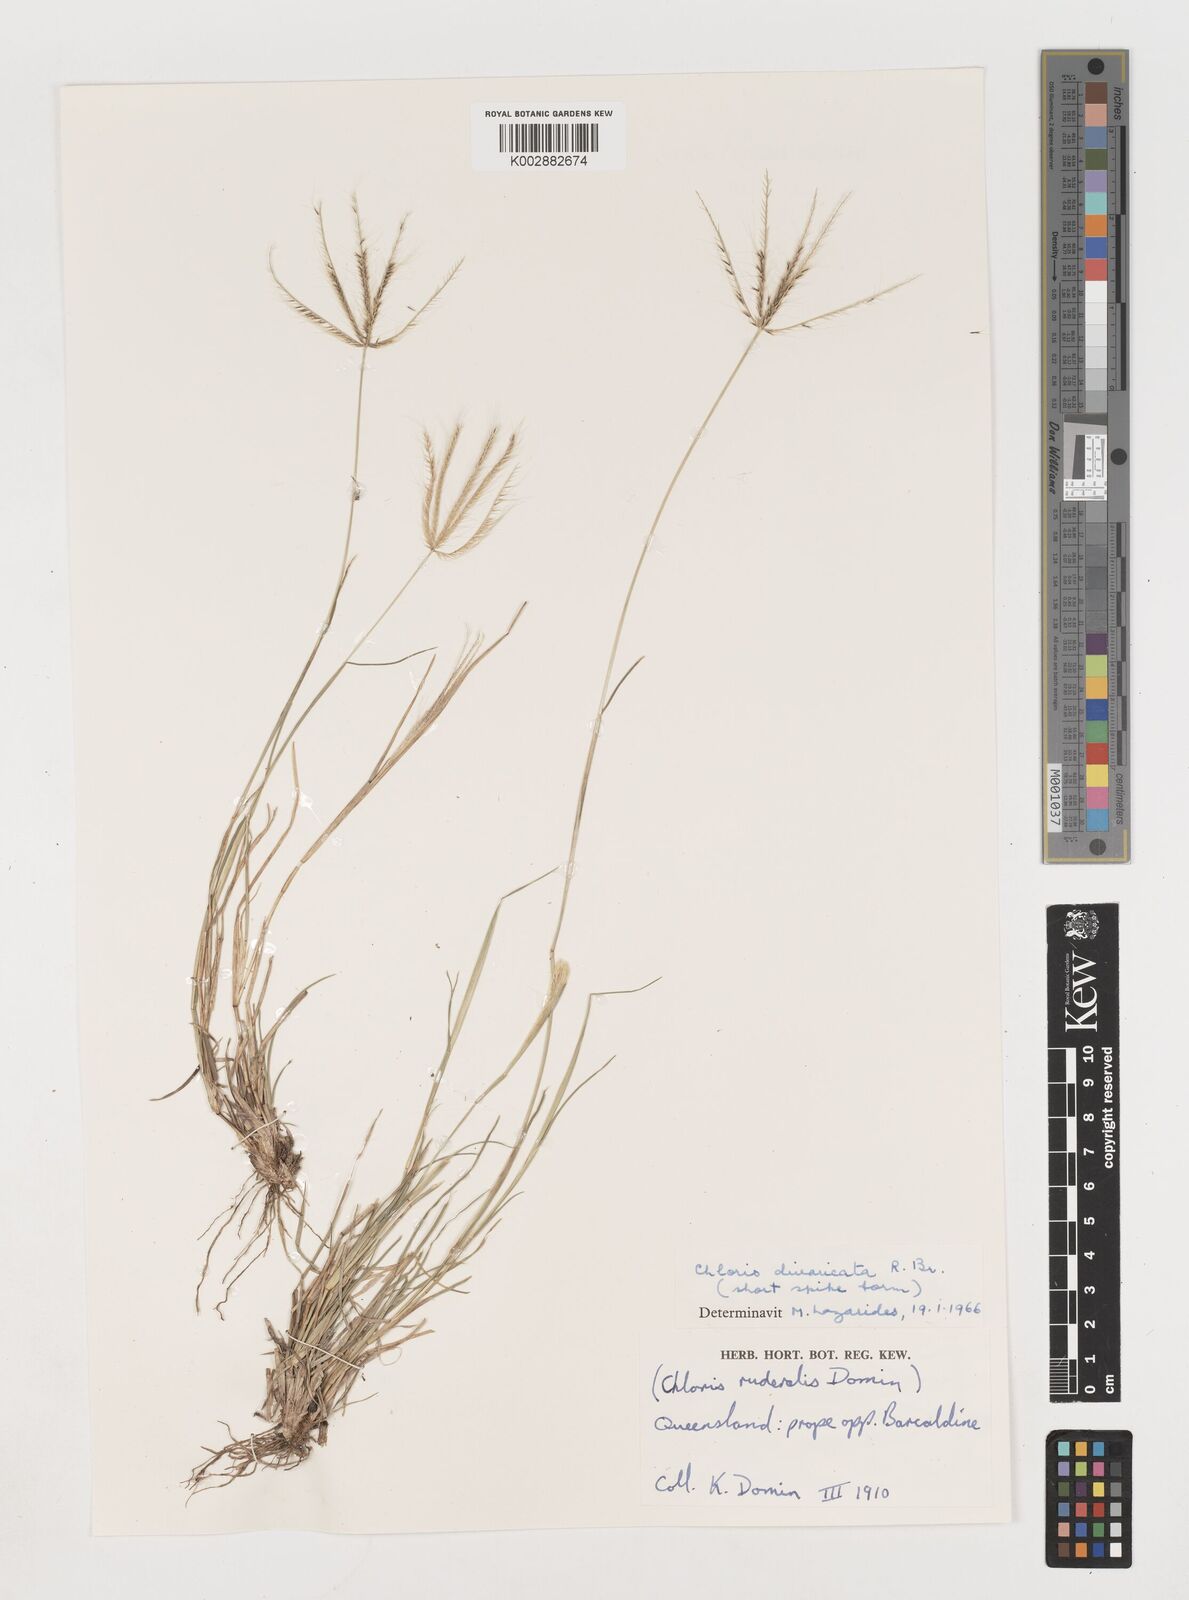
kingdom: Plantae
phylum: Tracheophyta
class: Liliopsida
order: Poales
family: Poaceae
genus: Chloris
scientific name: Chloris divaricata
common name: Spreading windmill grass
